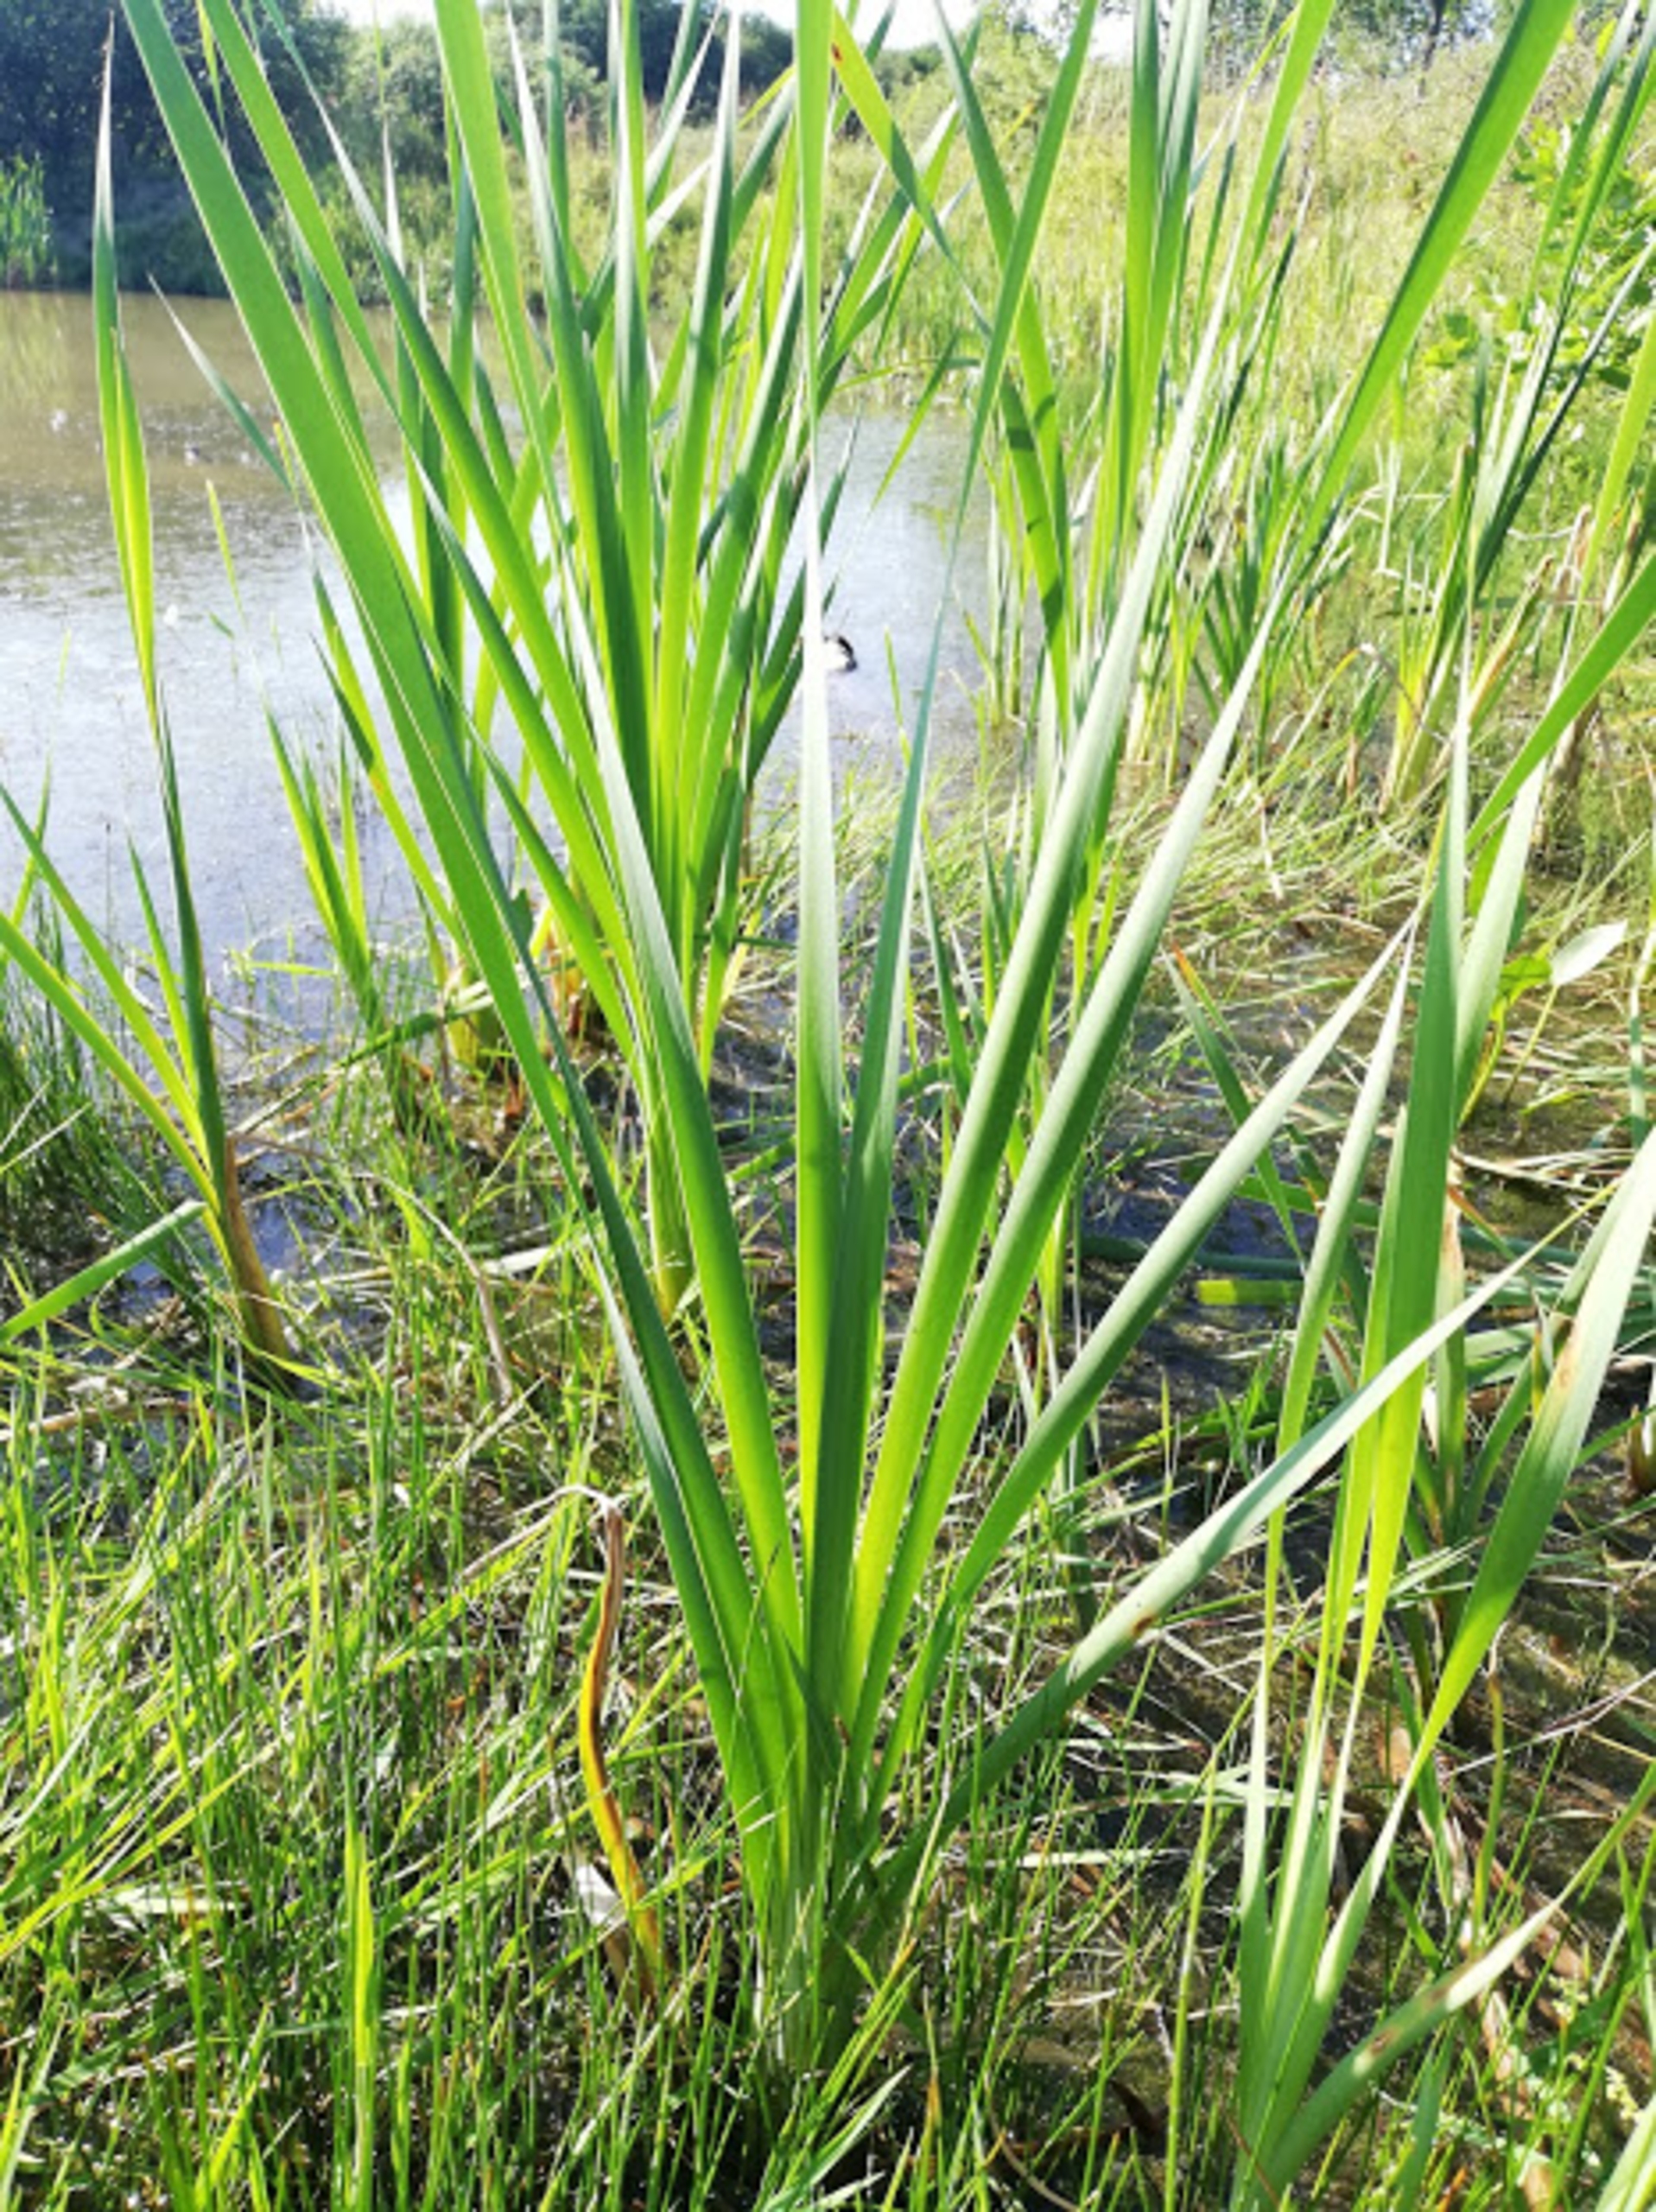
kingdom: Plantae
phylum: Tracheophyta
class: Liliopsida
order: Poales
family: Typhaceae
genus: Typha
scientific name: Typha latifolia
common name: Bredbladet dunhammer
